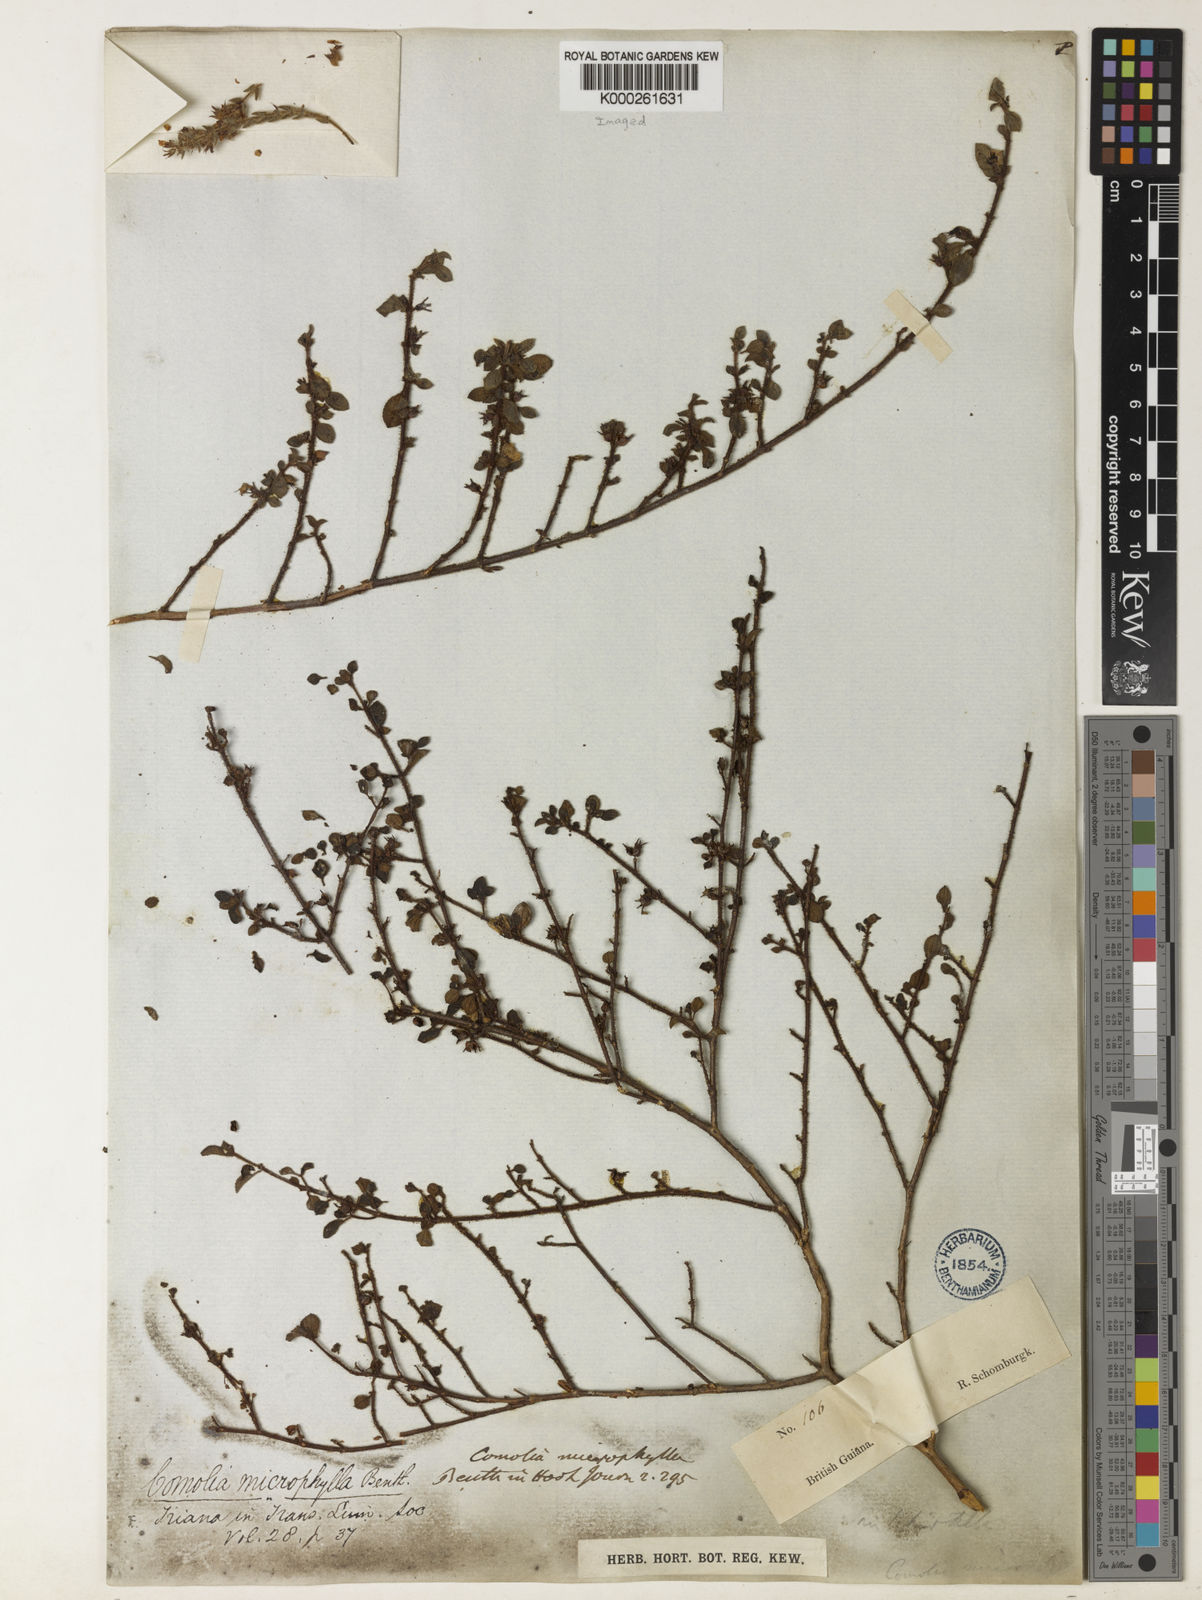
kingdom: Plantae
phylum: Tracheophyta
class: Magnoliopsida
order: Myrtales
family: Melastomataceae
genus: Comolia
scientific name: Comolia microphylla
